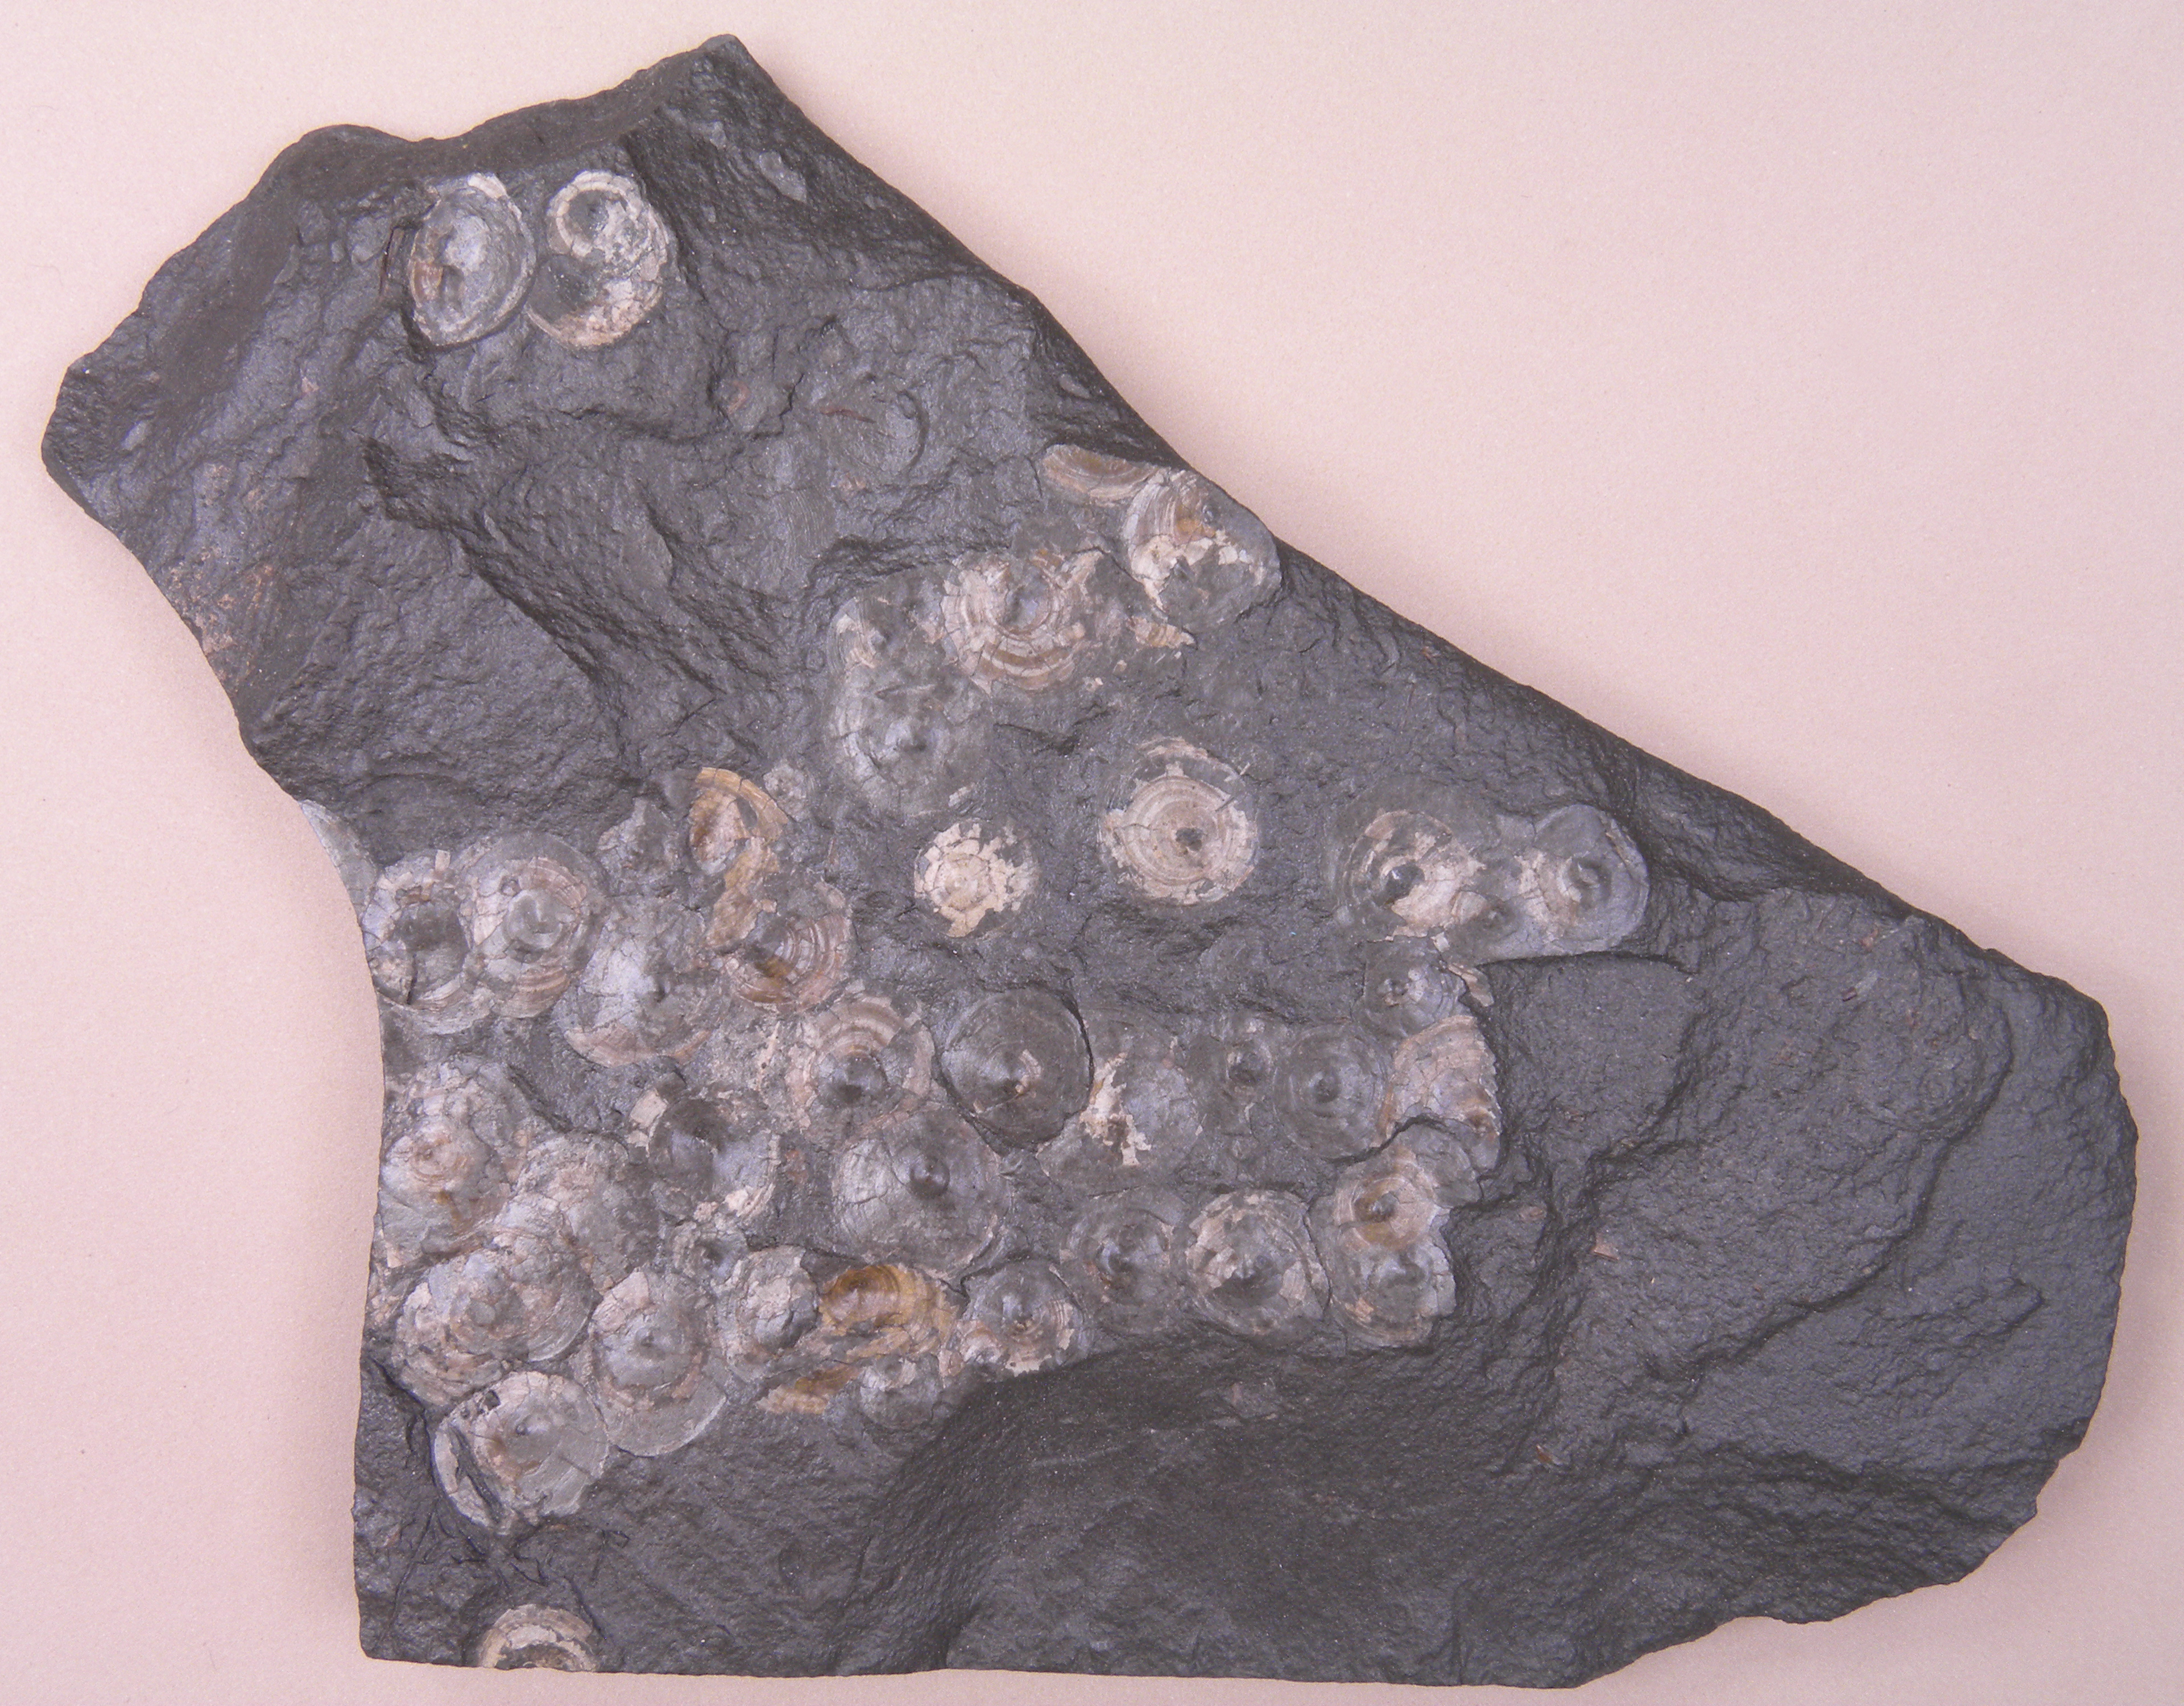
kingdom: Animalia
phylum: Brachiopoda
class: Lingulata
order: Lingulida
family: Discinidae
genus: Orbiculoidea
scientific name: Orbiculoidea
